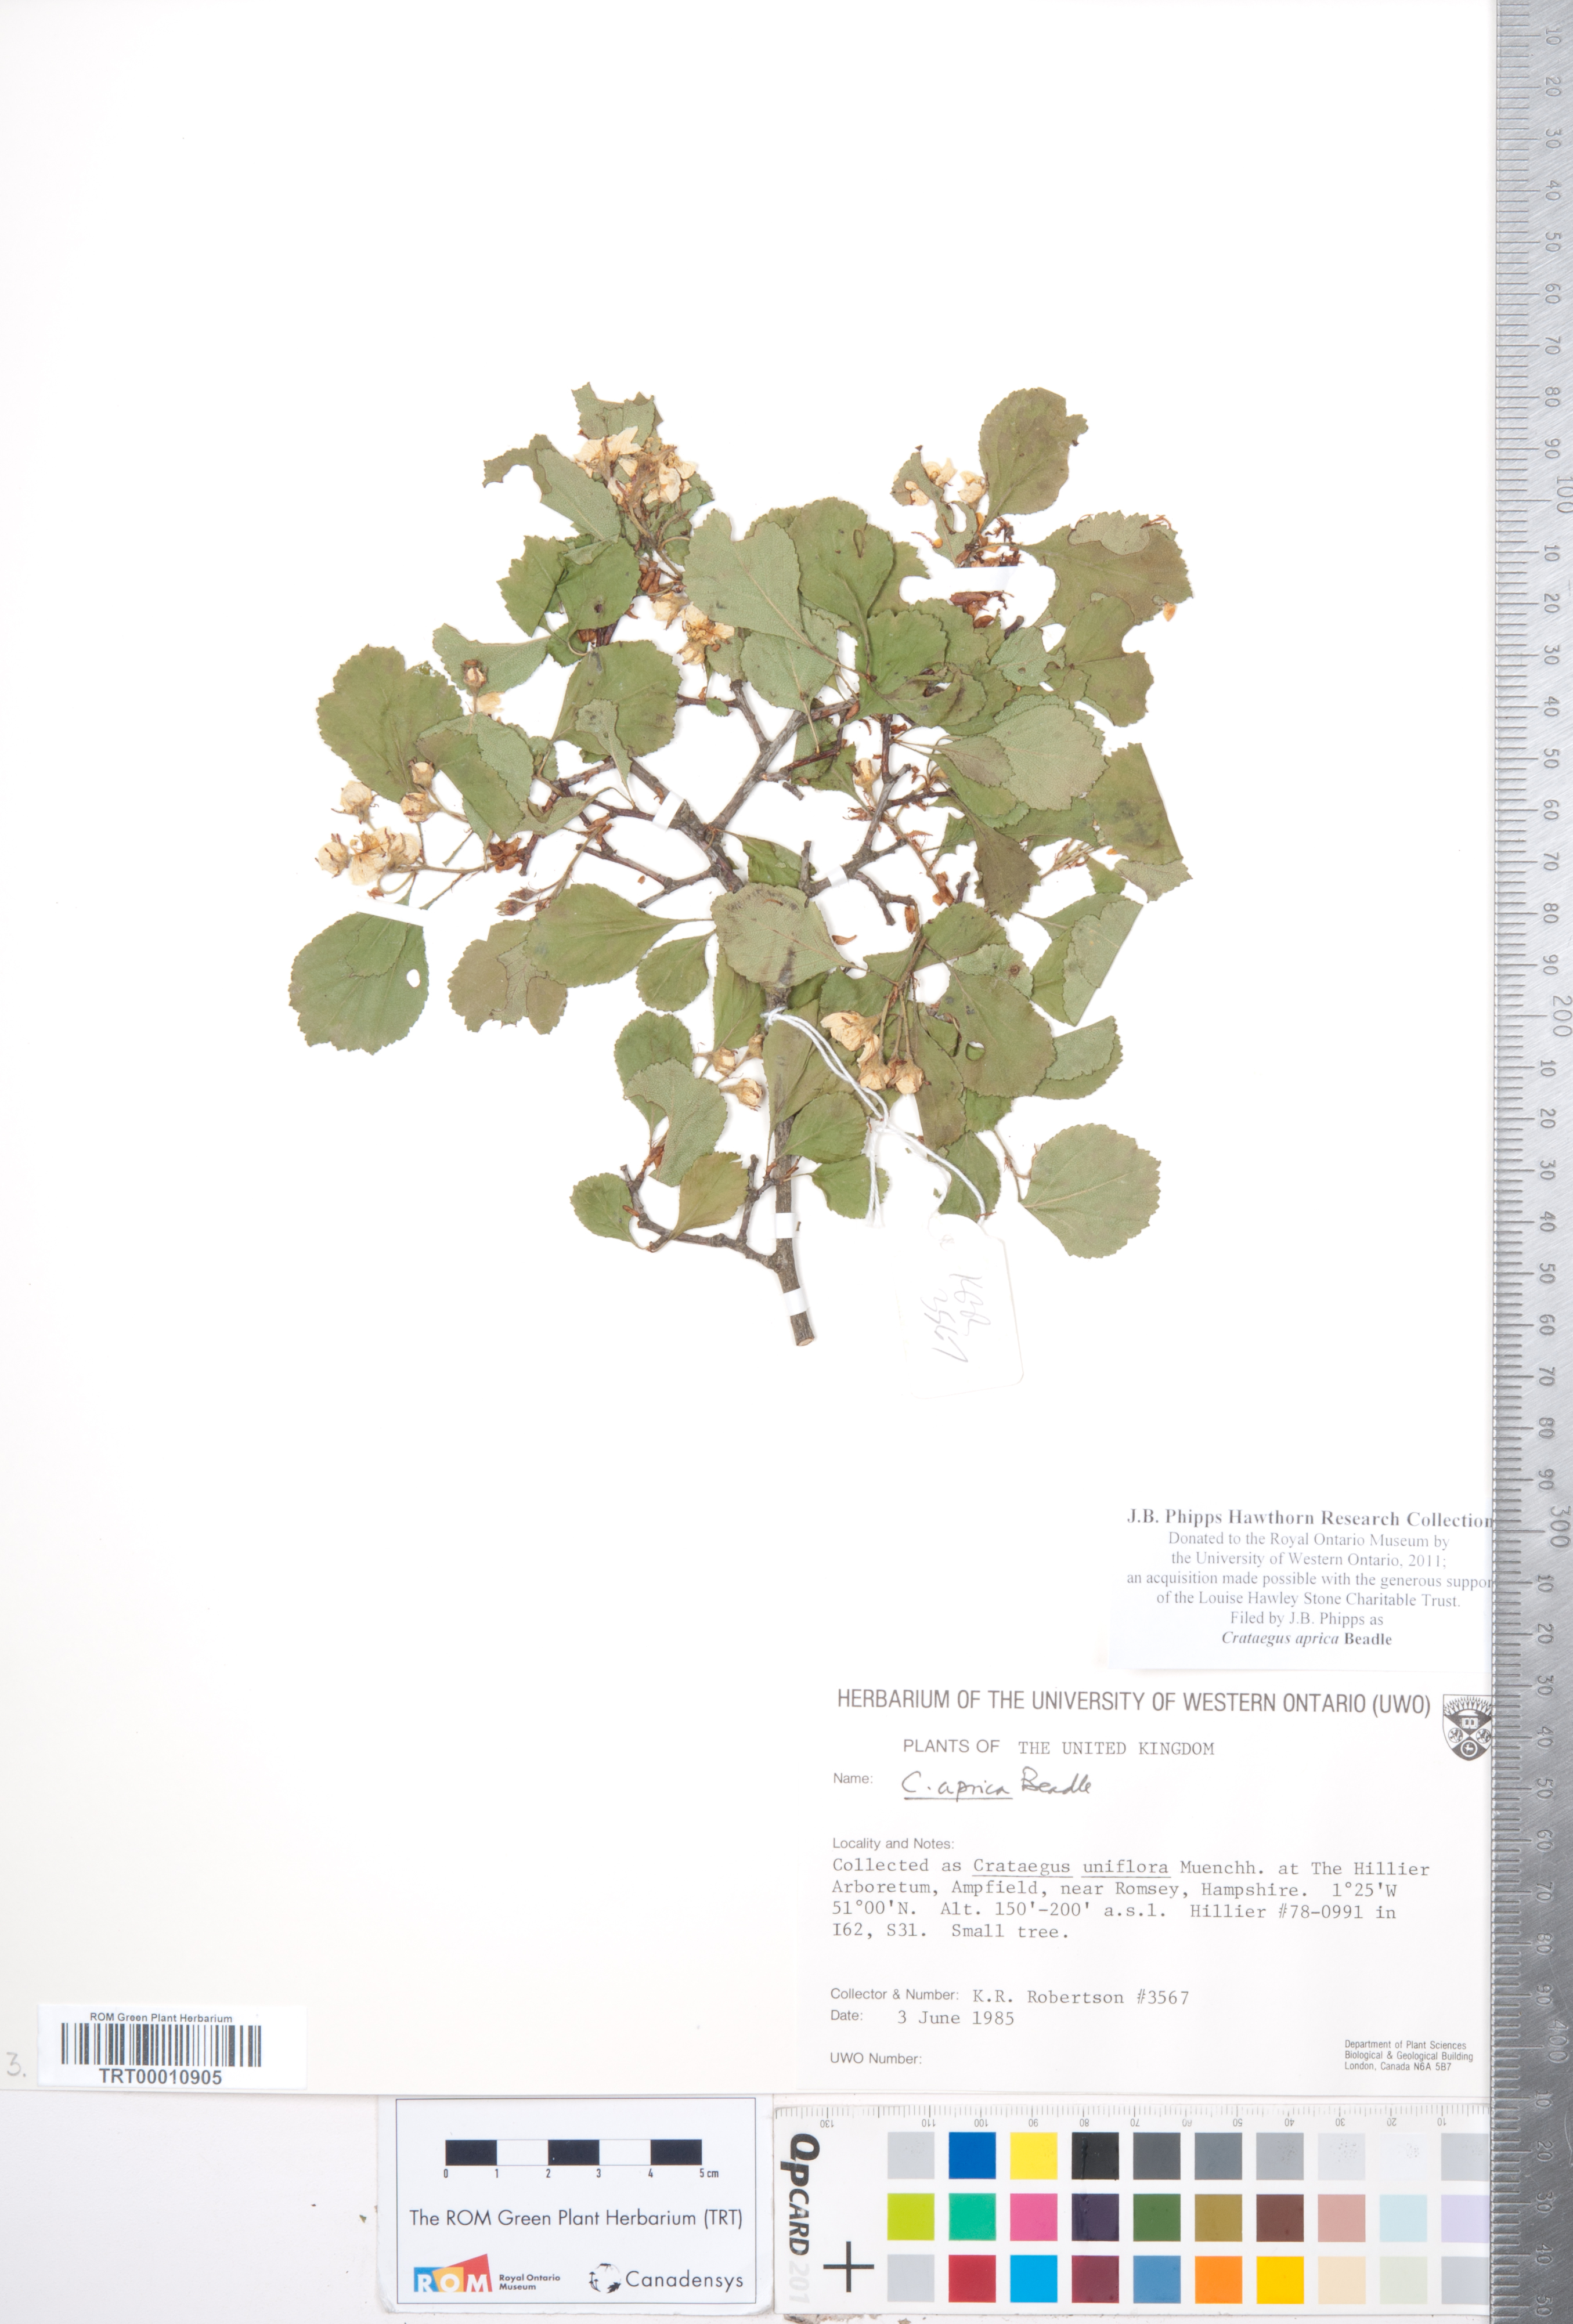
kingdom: Plantae
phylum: Tracheophyta
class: Magnoliopsida
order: Rosales
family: Rosaceae
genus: Crataegus
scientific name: Crataegus aprica
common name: Sunny hawthorn
